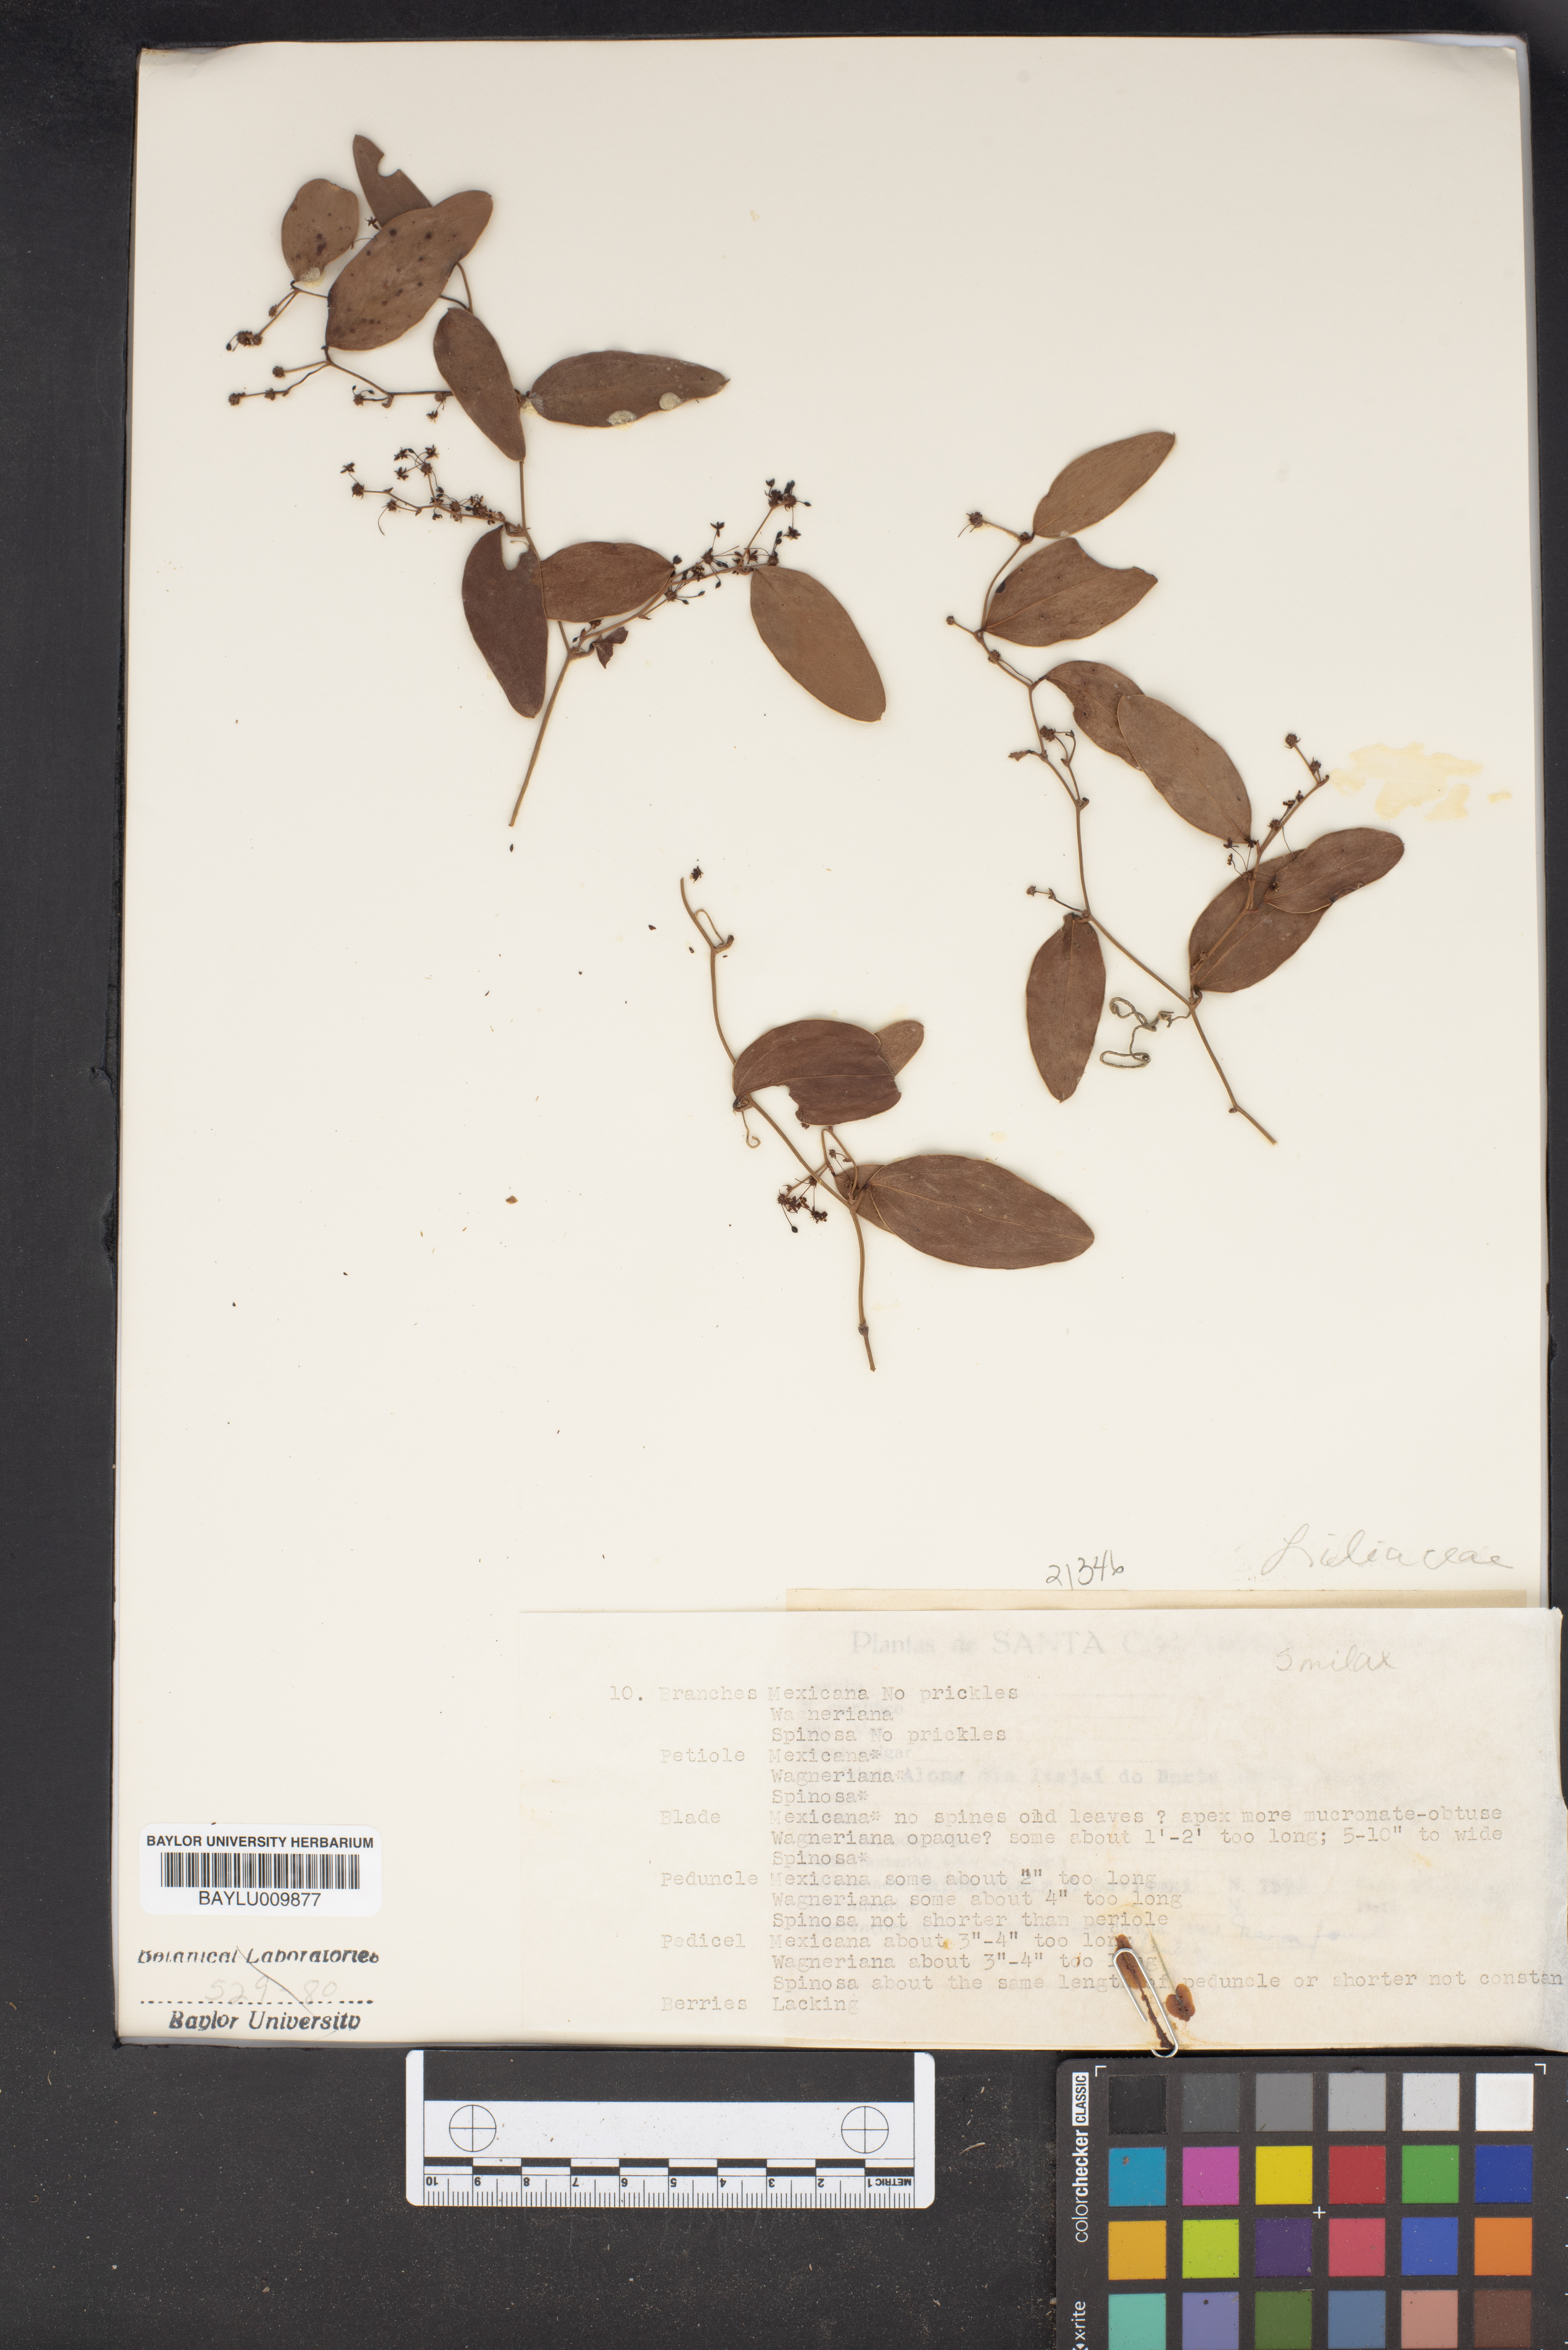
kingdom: Plantae
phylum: Tracheophyta
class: Liliopsida
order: Liliales
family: Smilacaceae
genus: Smilax
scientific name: Smilax
